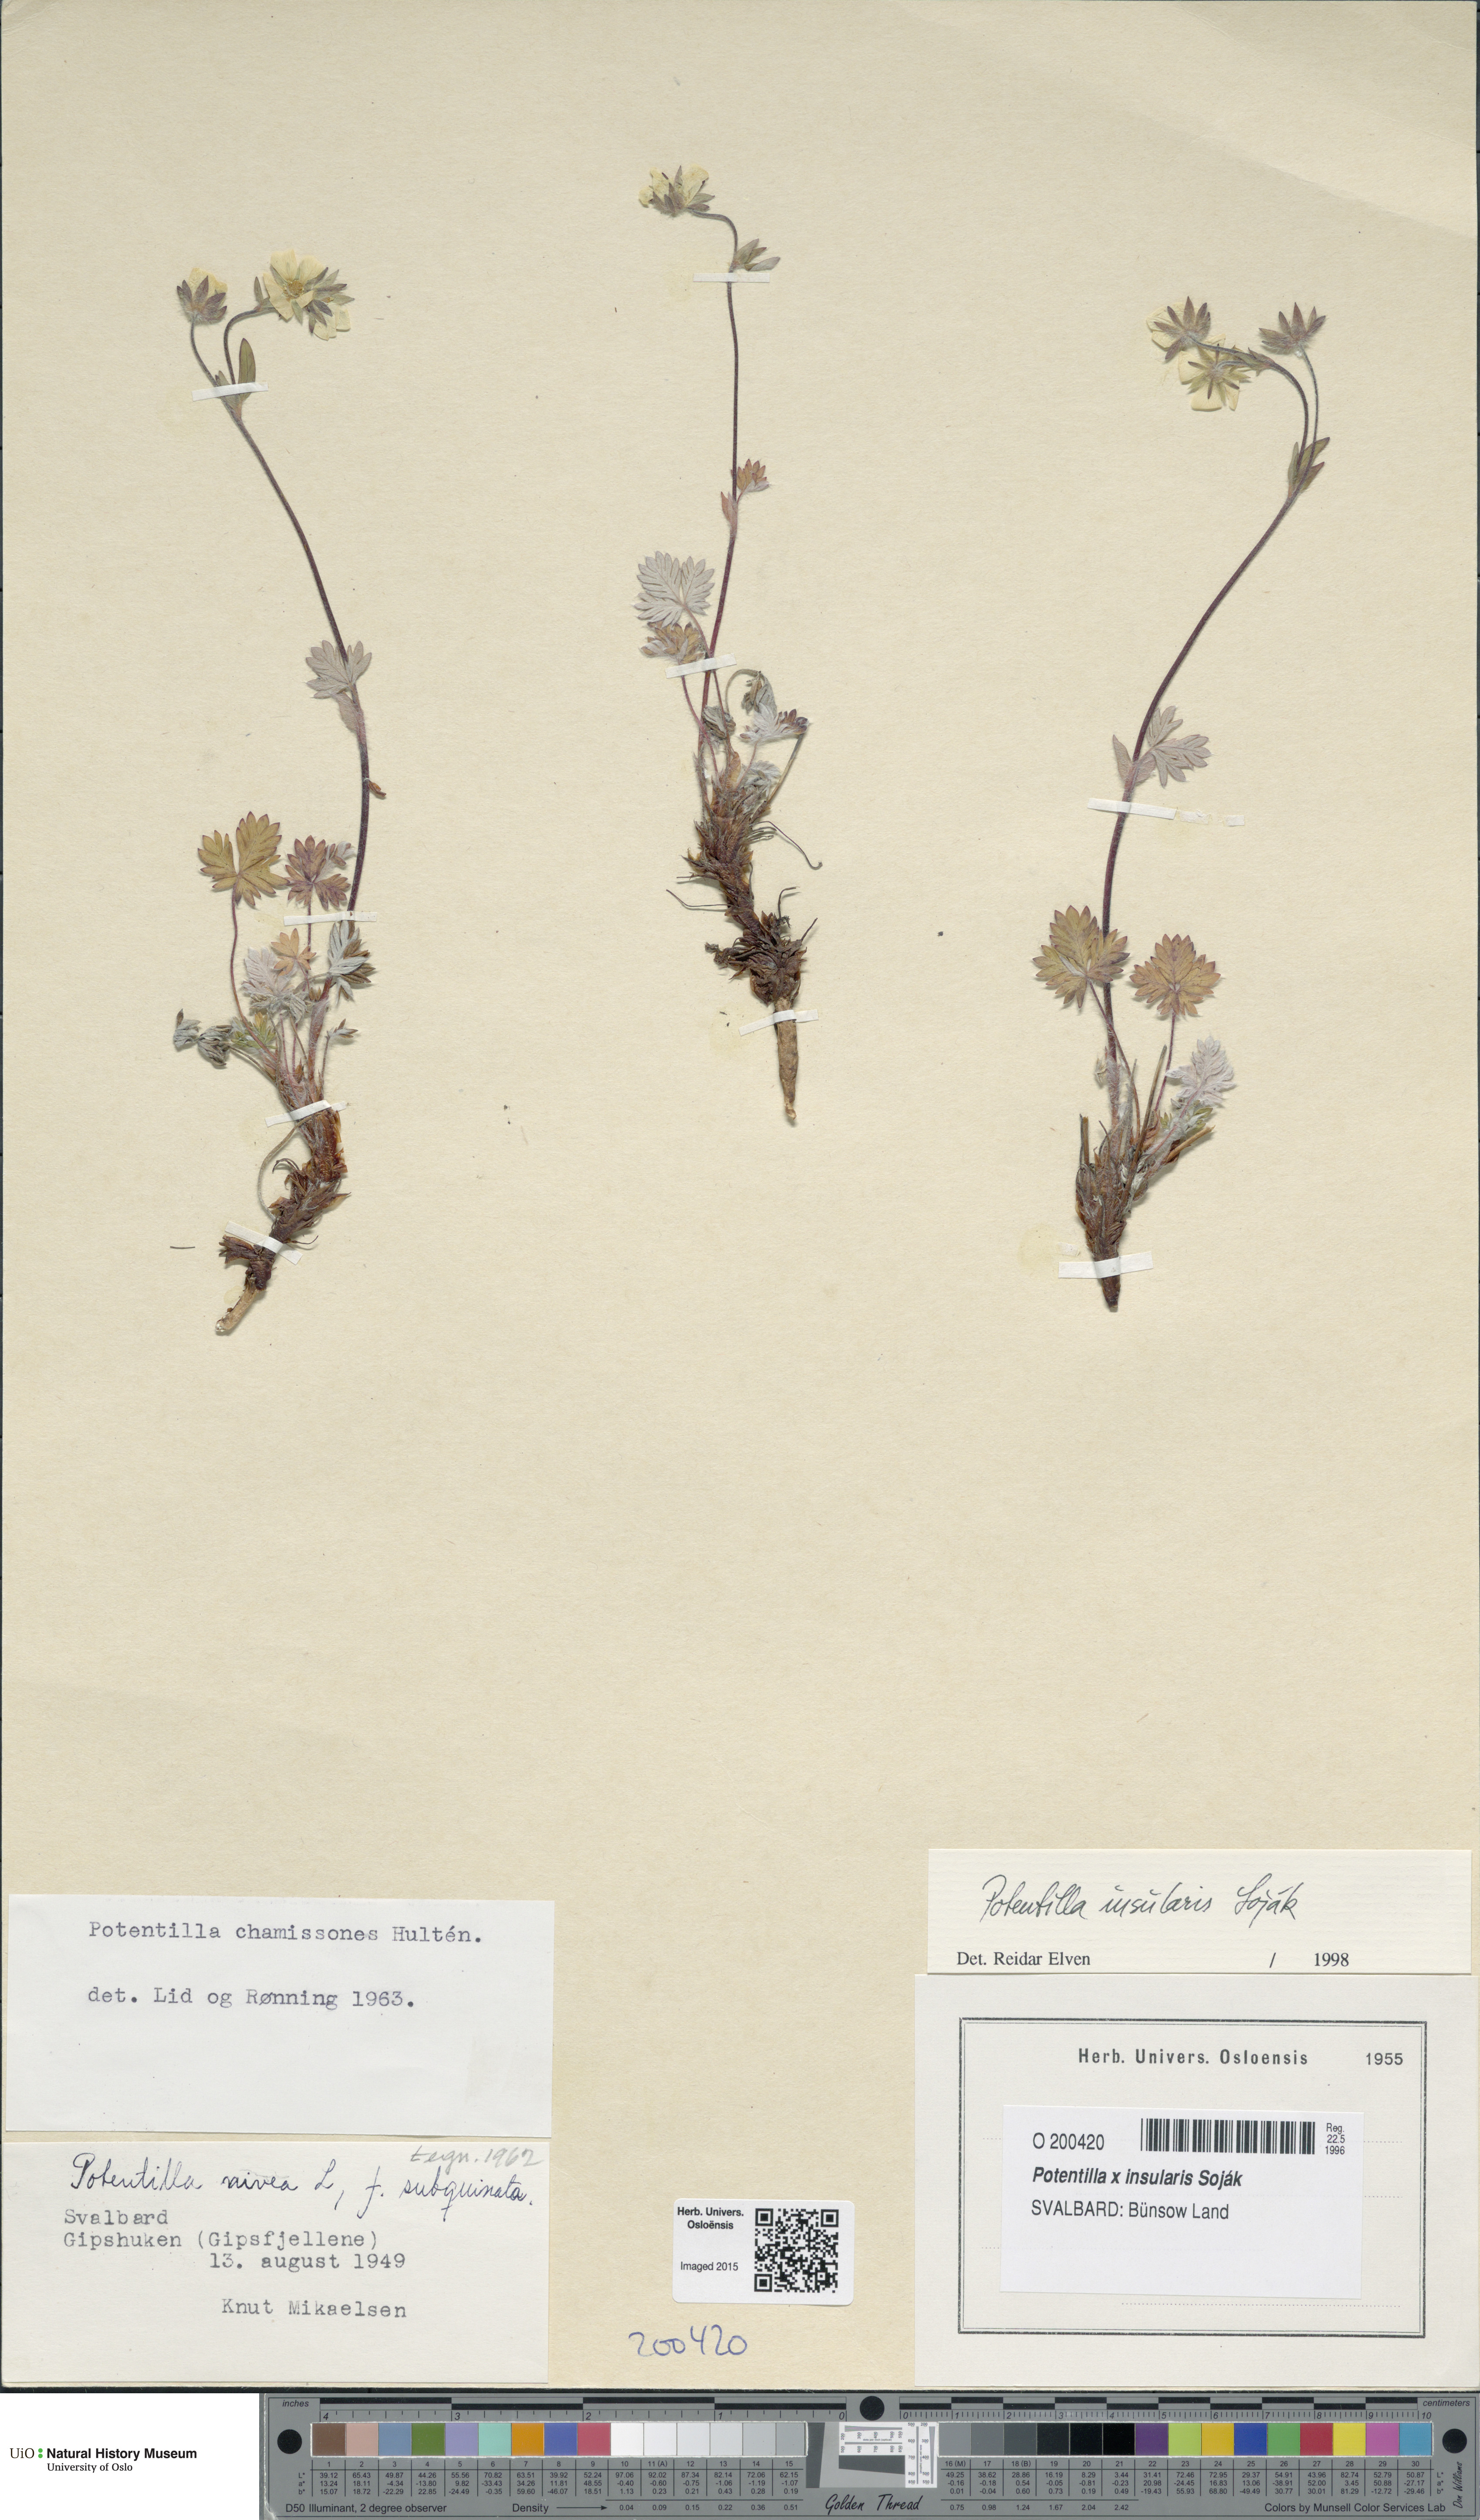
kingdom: Plantae
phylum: Tracheophyta
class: Magnoliopsida
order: Rosales
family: Rosaceae
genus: Potentilla
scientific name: Potentilla insularis
